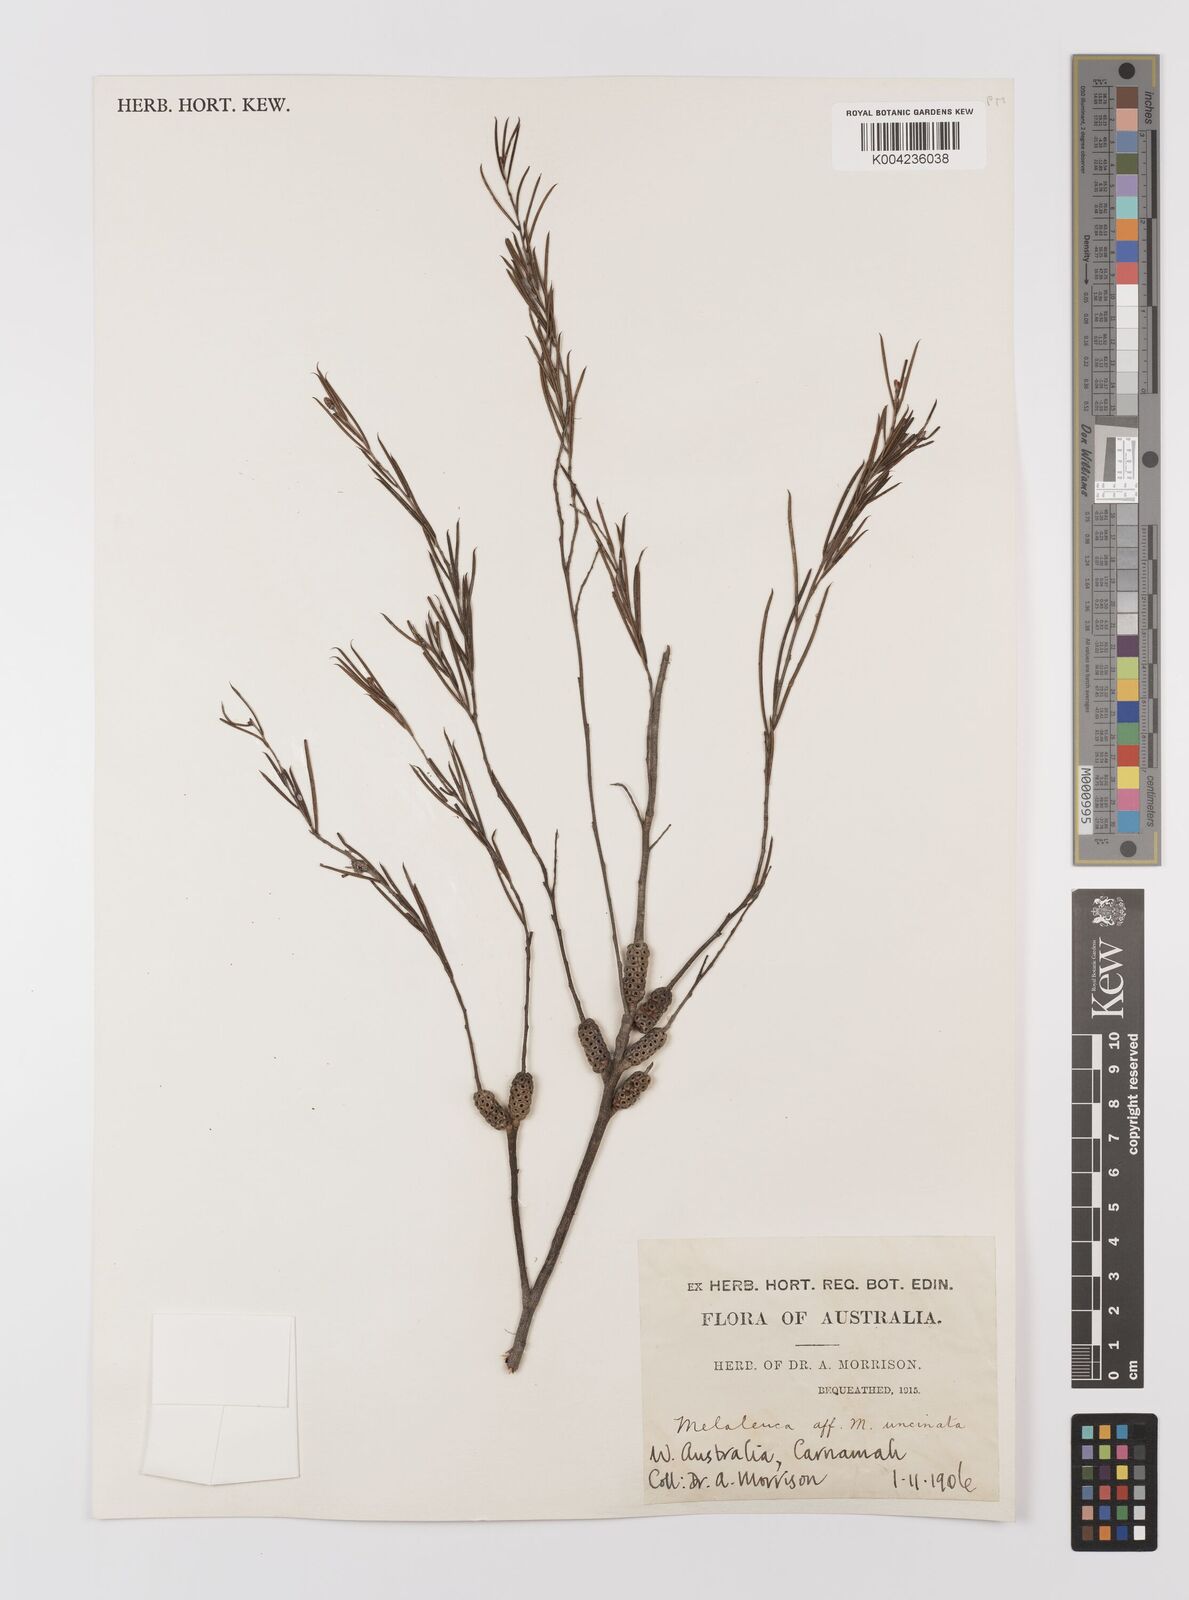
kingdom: Plantae
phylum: Tracheophyta
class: Magnoliopsida
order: Myrtales
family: Myrtaceae
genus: Melaleuca
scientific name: Melaleuca uncinata
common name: Broom honey myrtle
